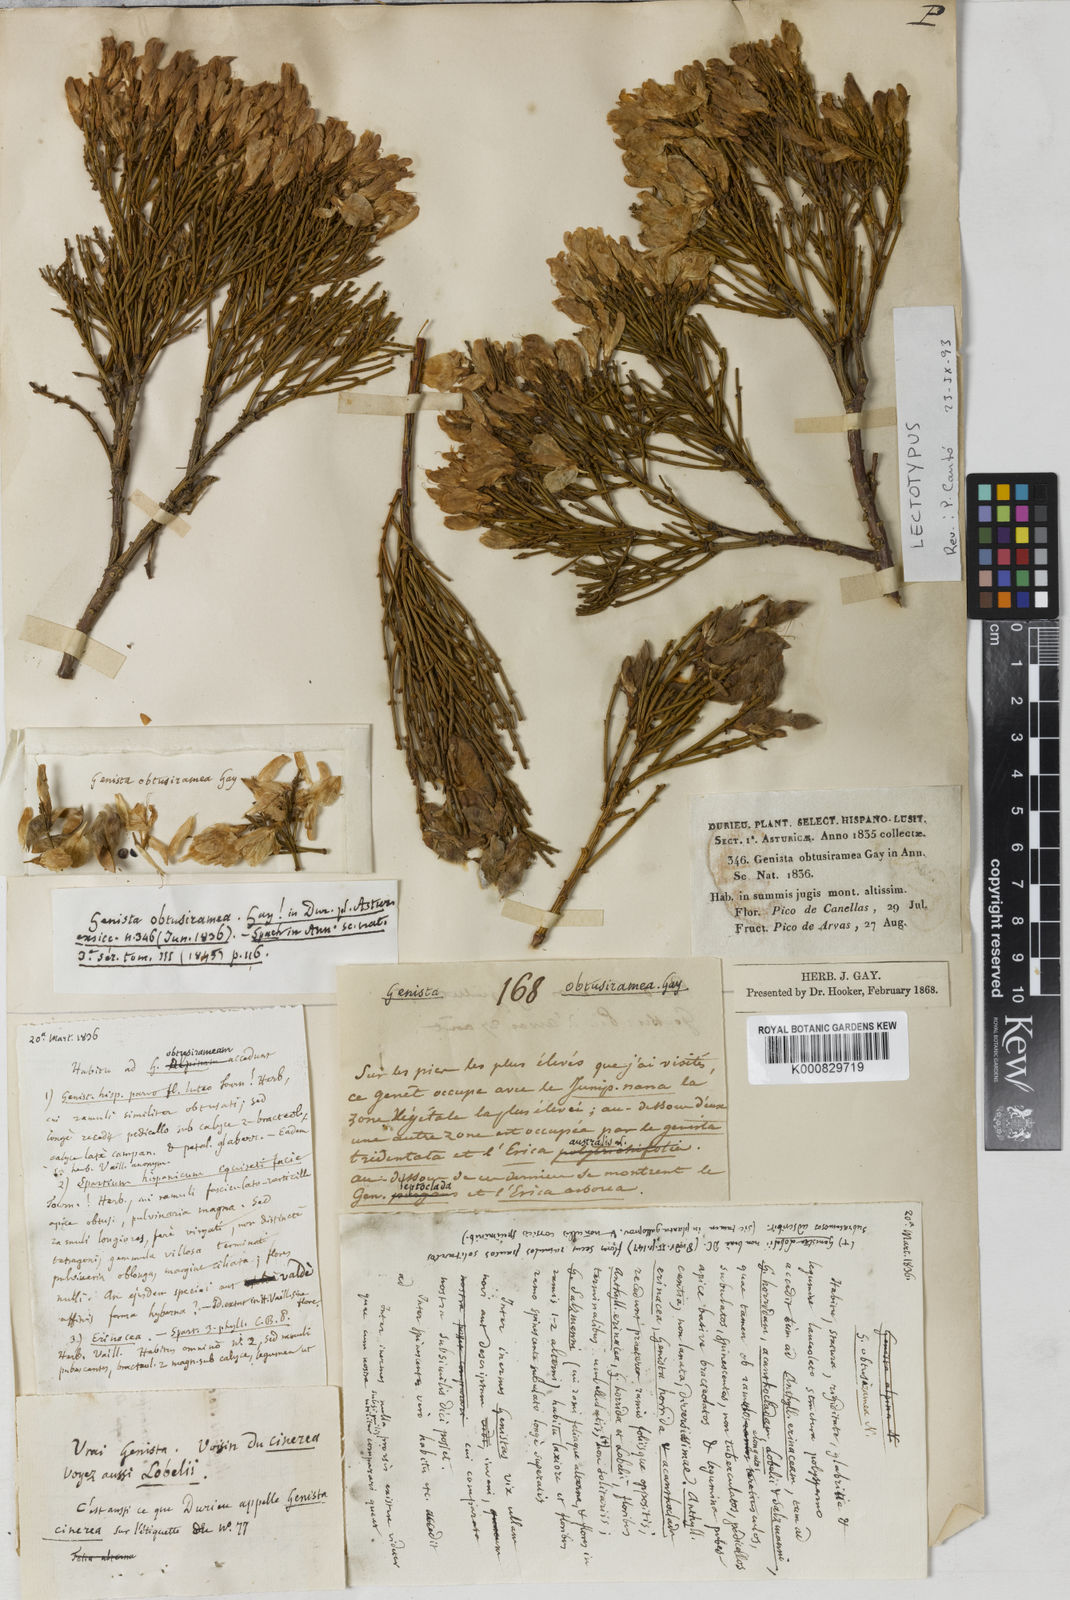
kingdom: Plantae
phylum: Tracheophyta
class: Magnoliopsida
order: Fabales
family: Fabaceae
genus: Genista
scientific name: Genista
